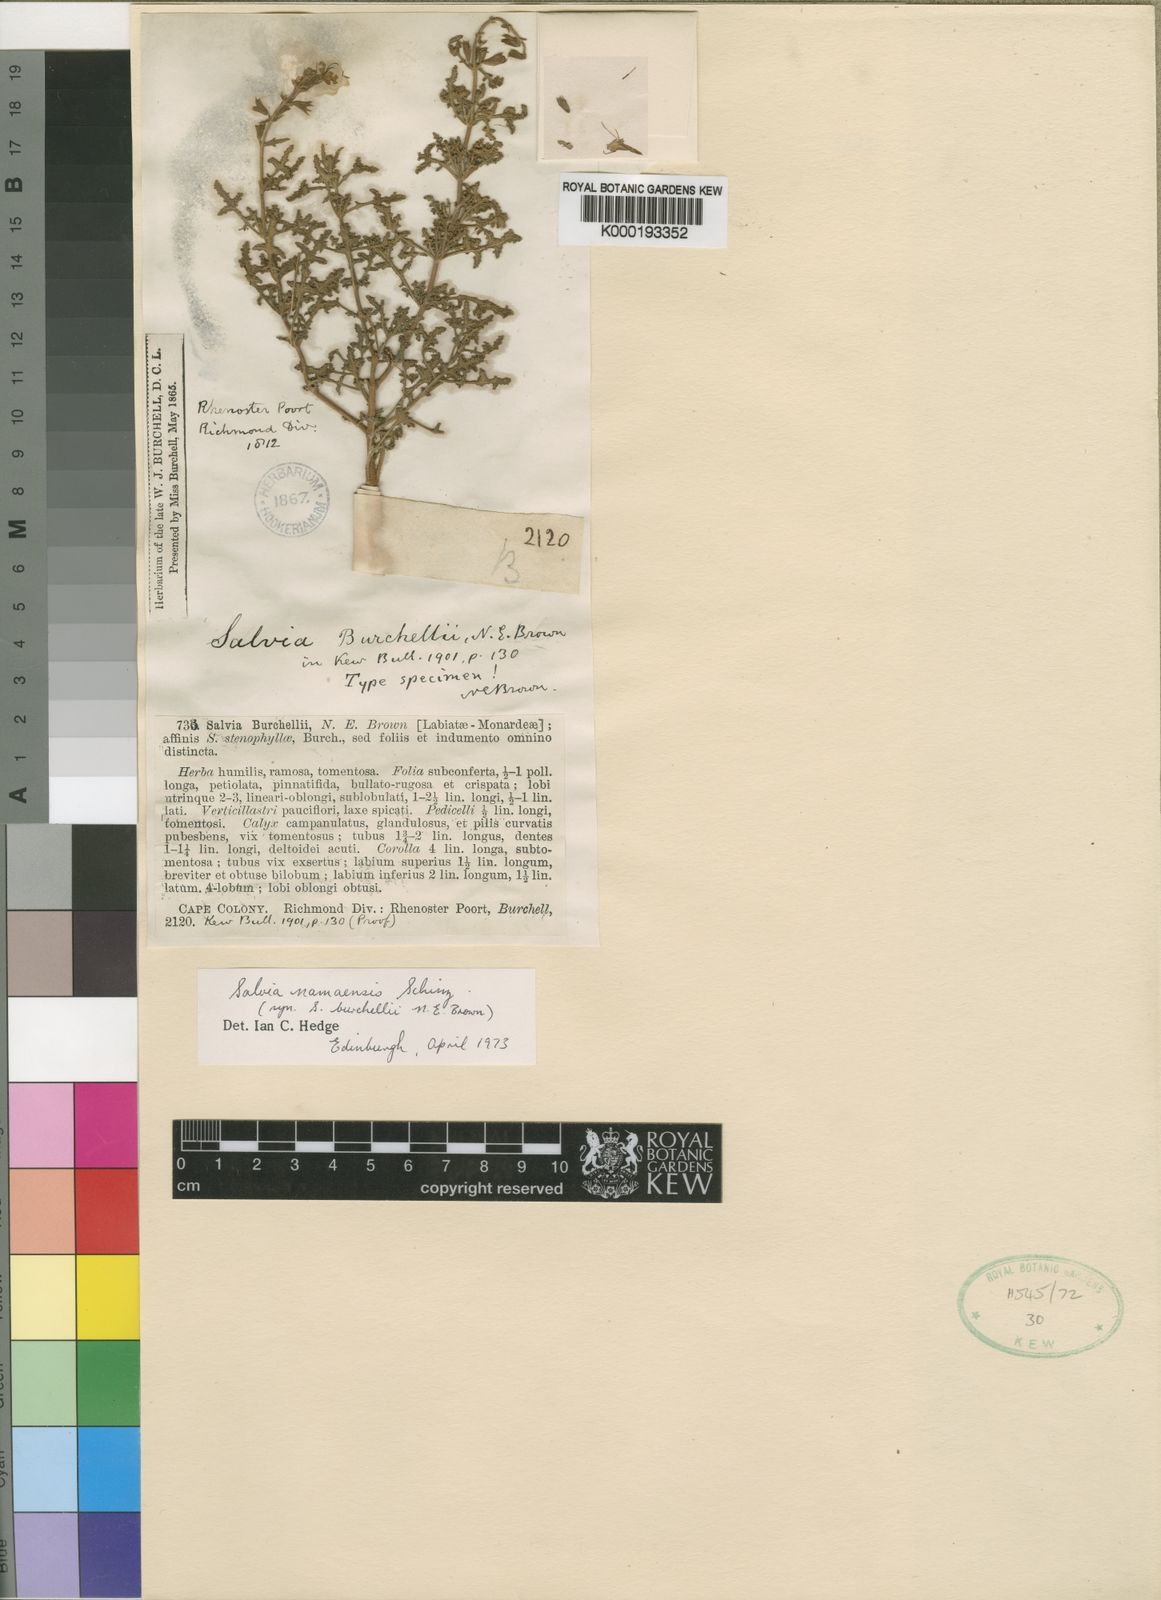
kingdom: Plantae
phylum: Tracheophyta
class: Magnoliopsida
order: Lamiales
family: Lamiaceae
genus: Salvia
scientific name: Salvia namaensis
